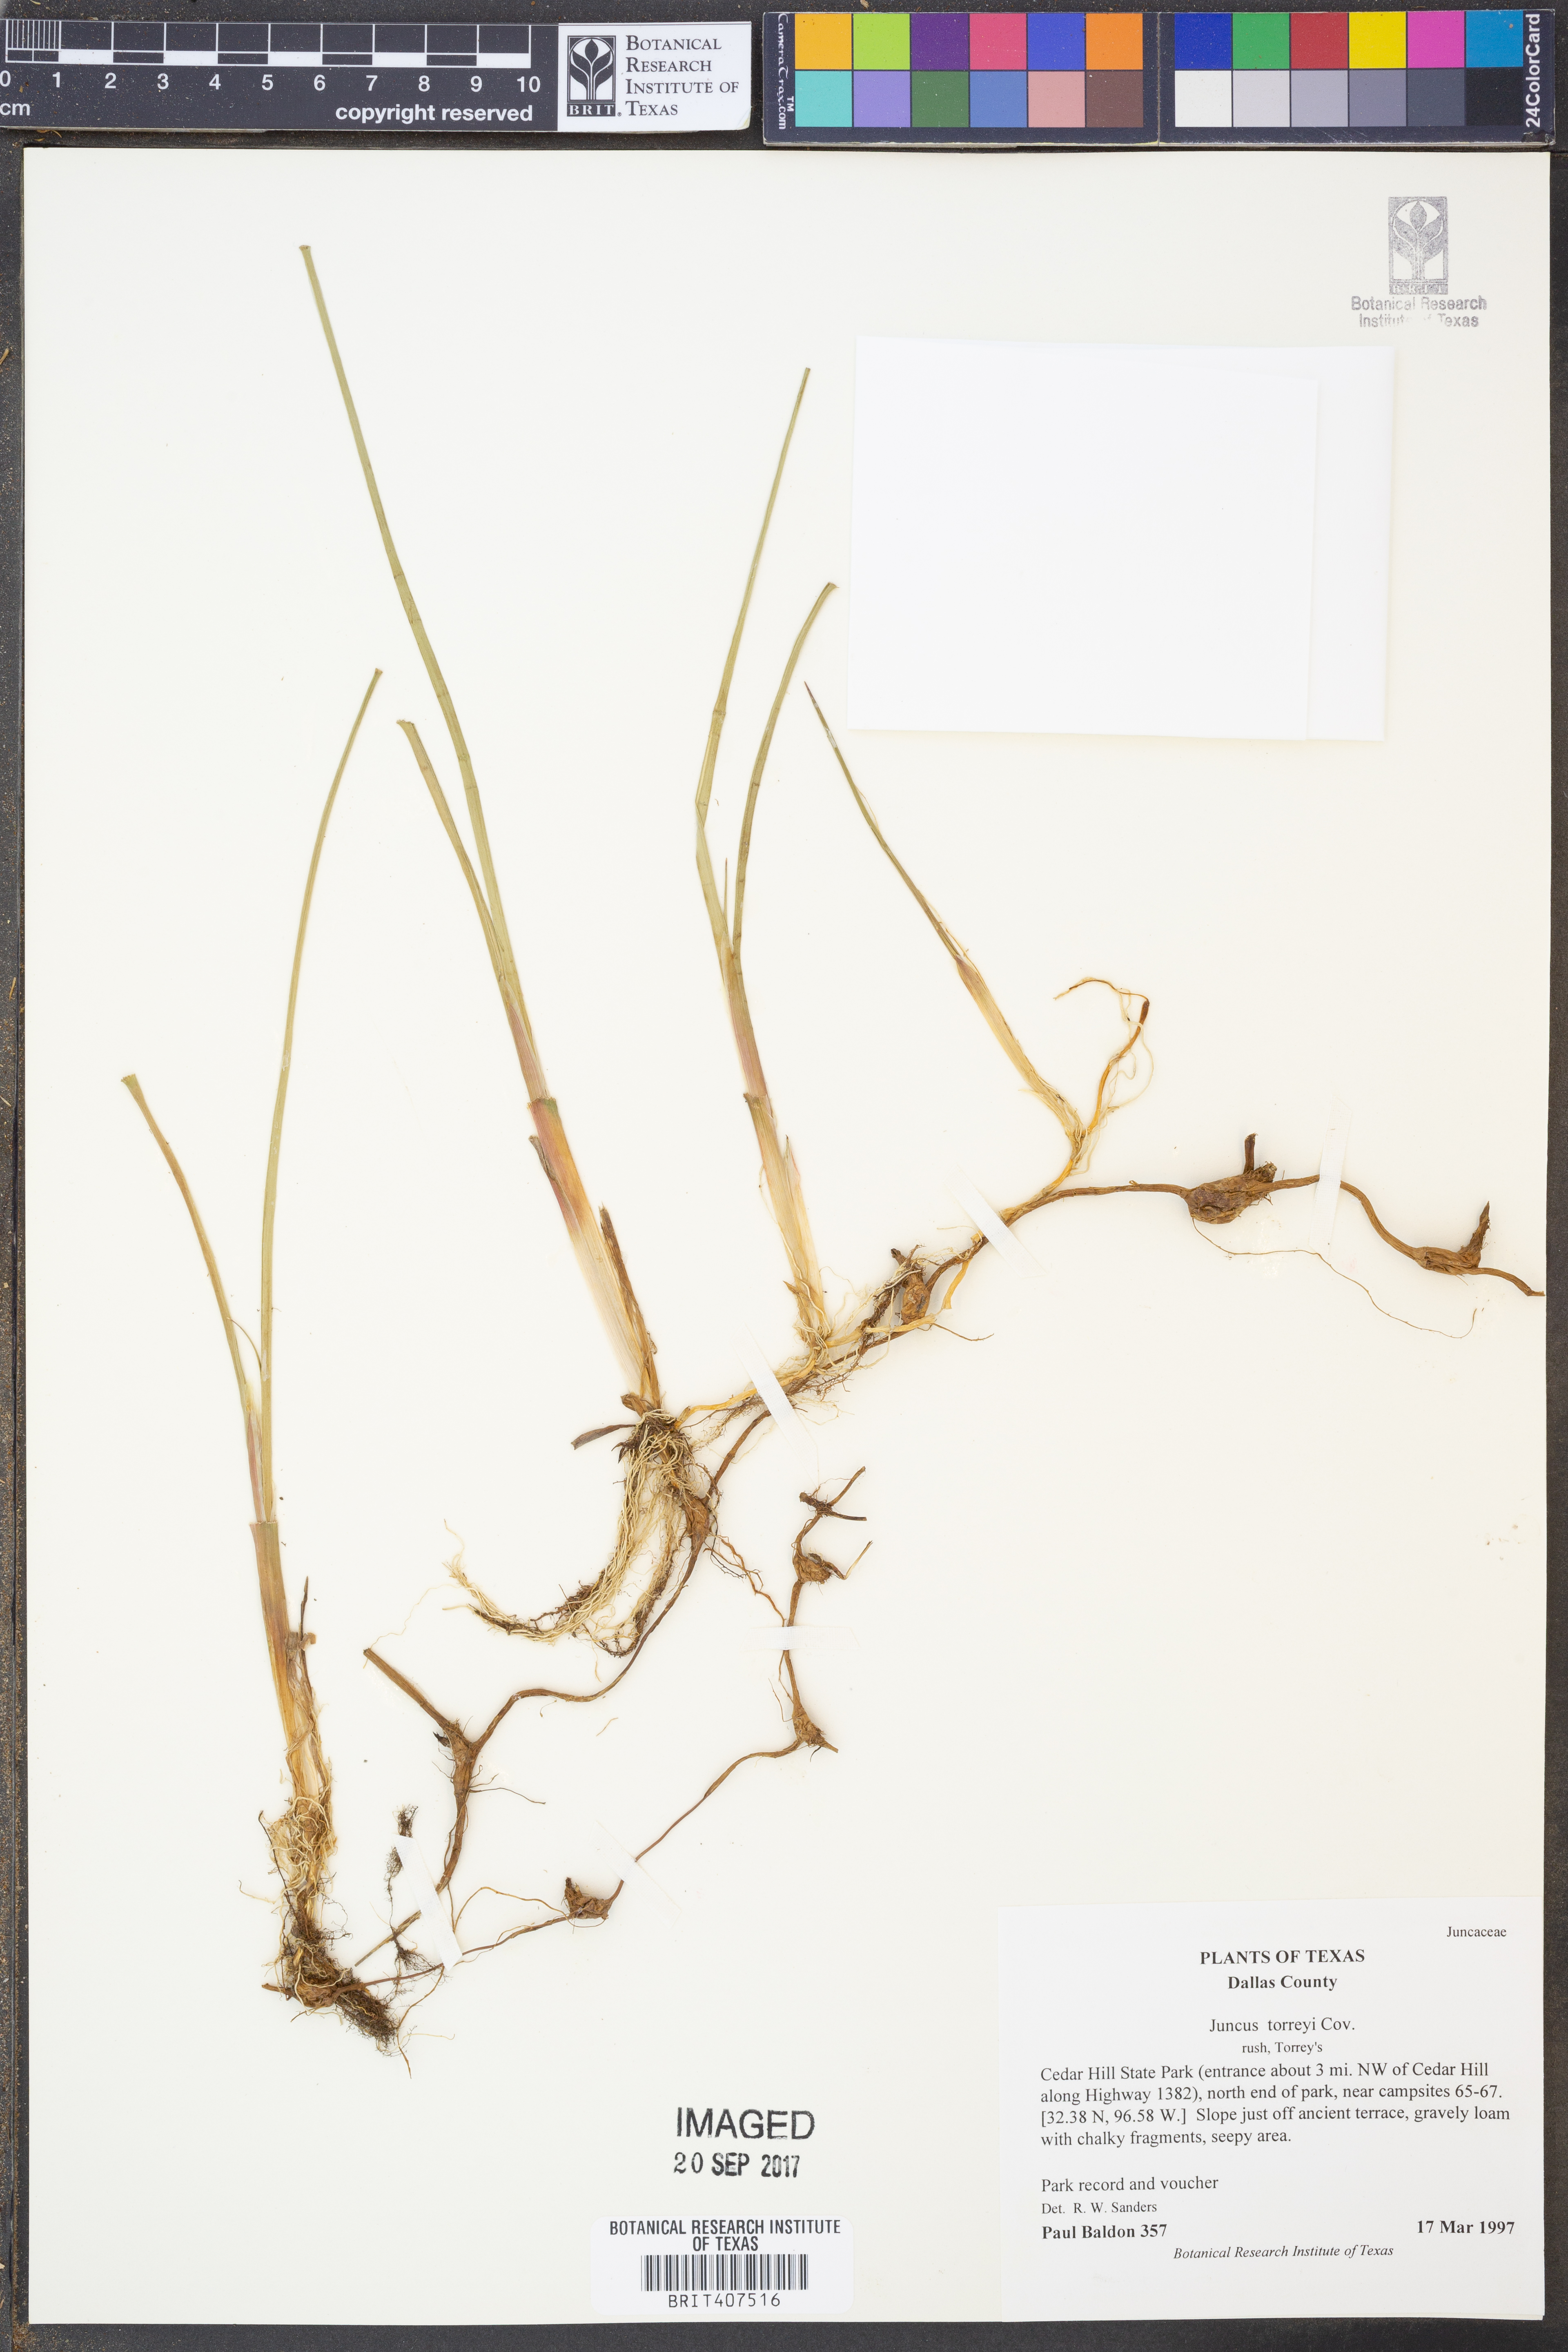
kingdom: Plantae
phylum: Tracheophyta
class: Liliopsida
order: Poales
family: Juncaceae
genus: Juncus
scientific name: Juncus torreyi
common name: Torrey's rush
